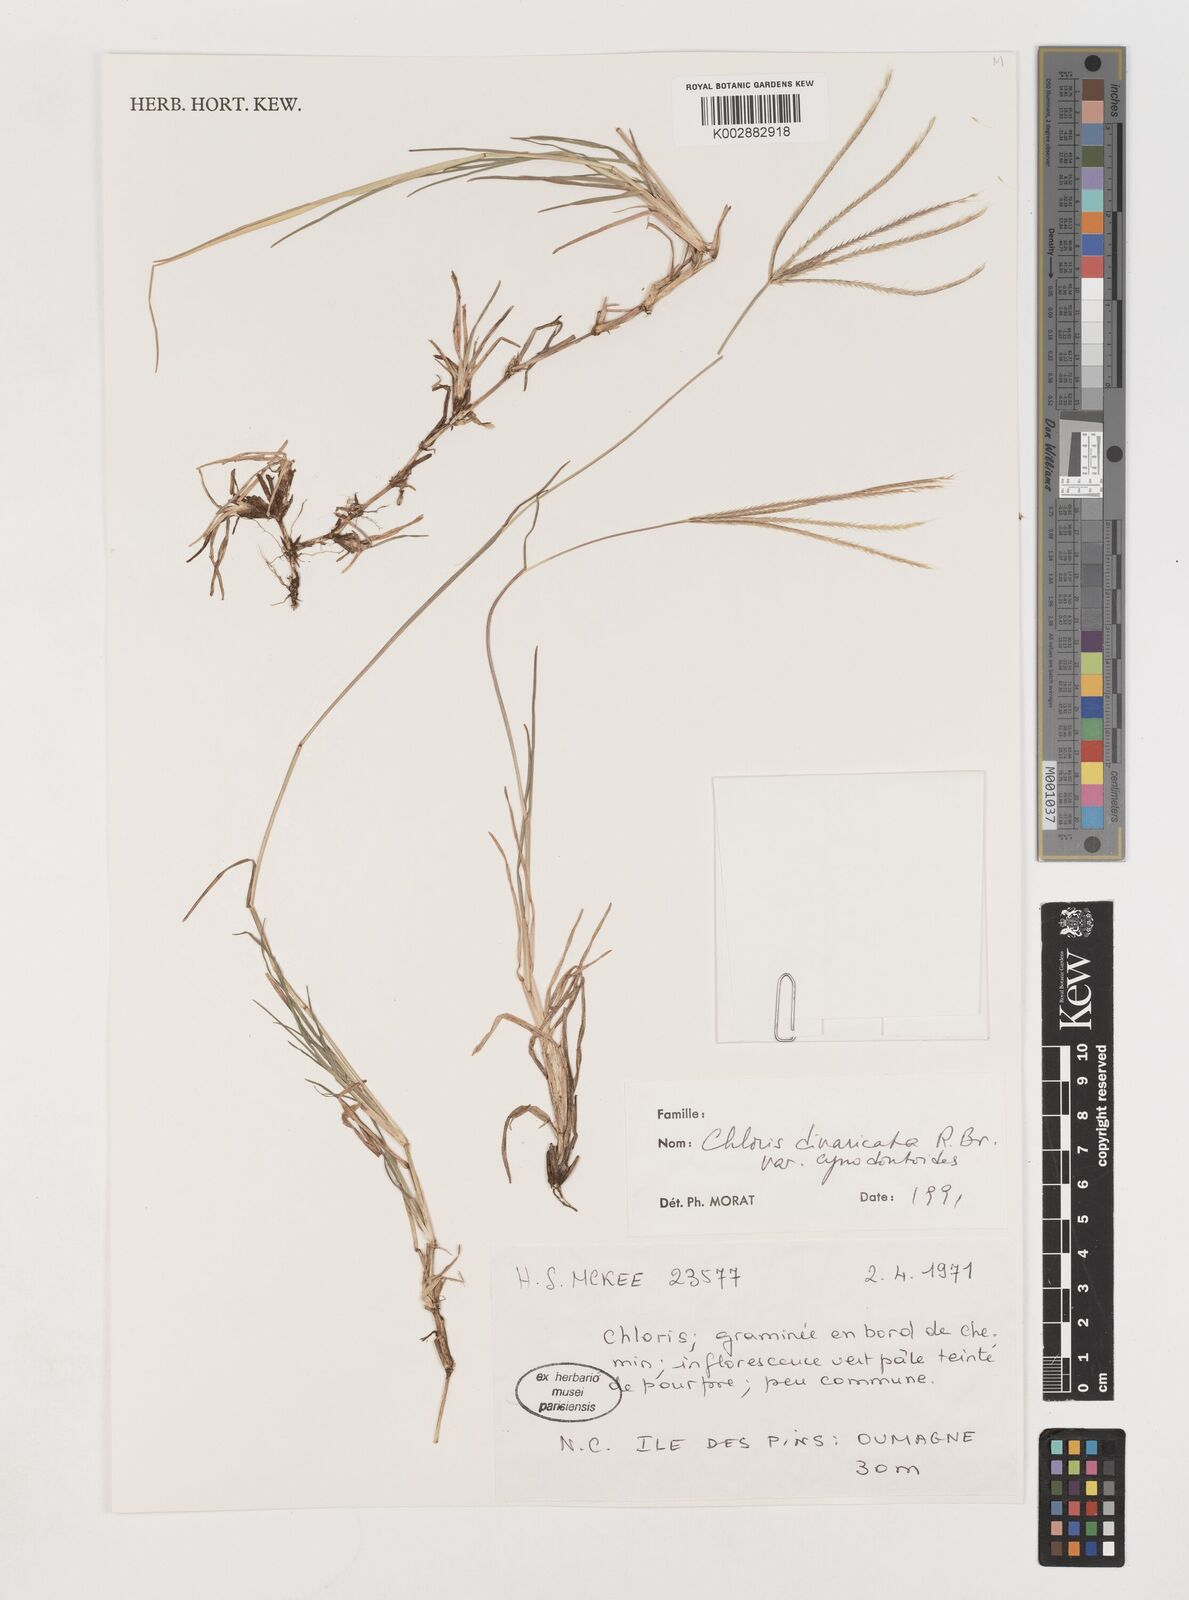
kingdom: Plantae
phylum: Tracheophyta
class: Liliopsida
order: Poales
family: Poaceae
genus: Chloris
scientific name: Chloris divaricata
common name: Spreading windmill grass
